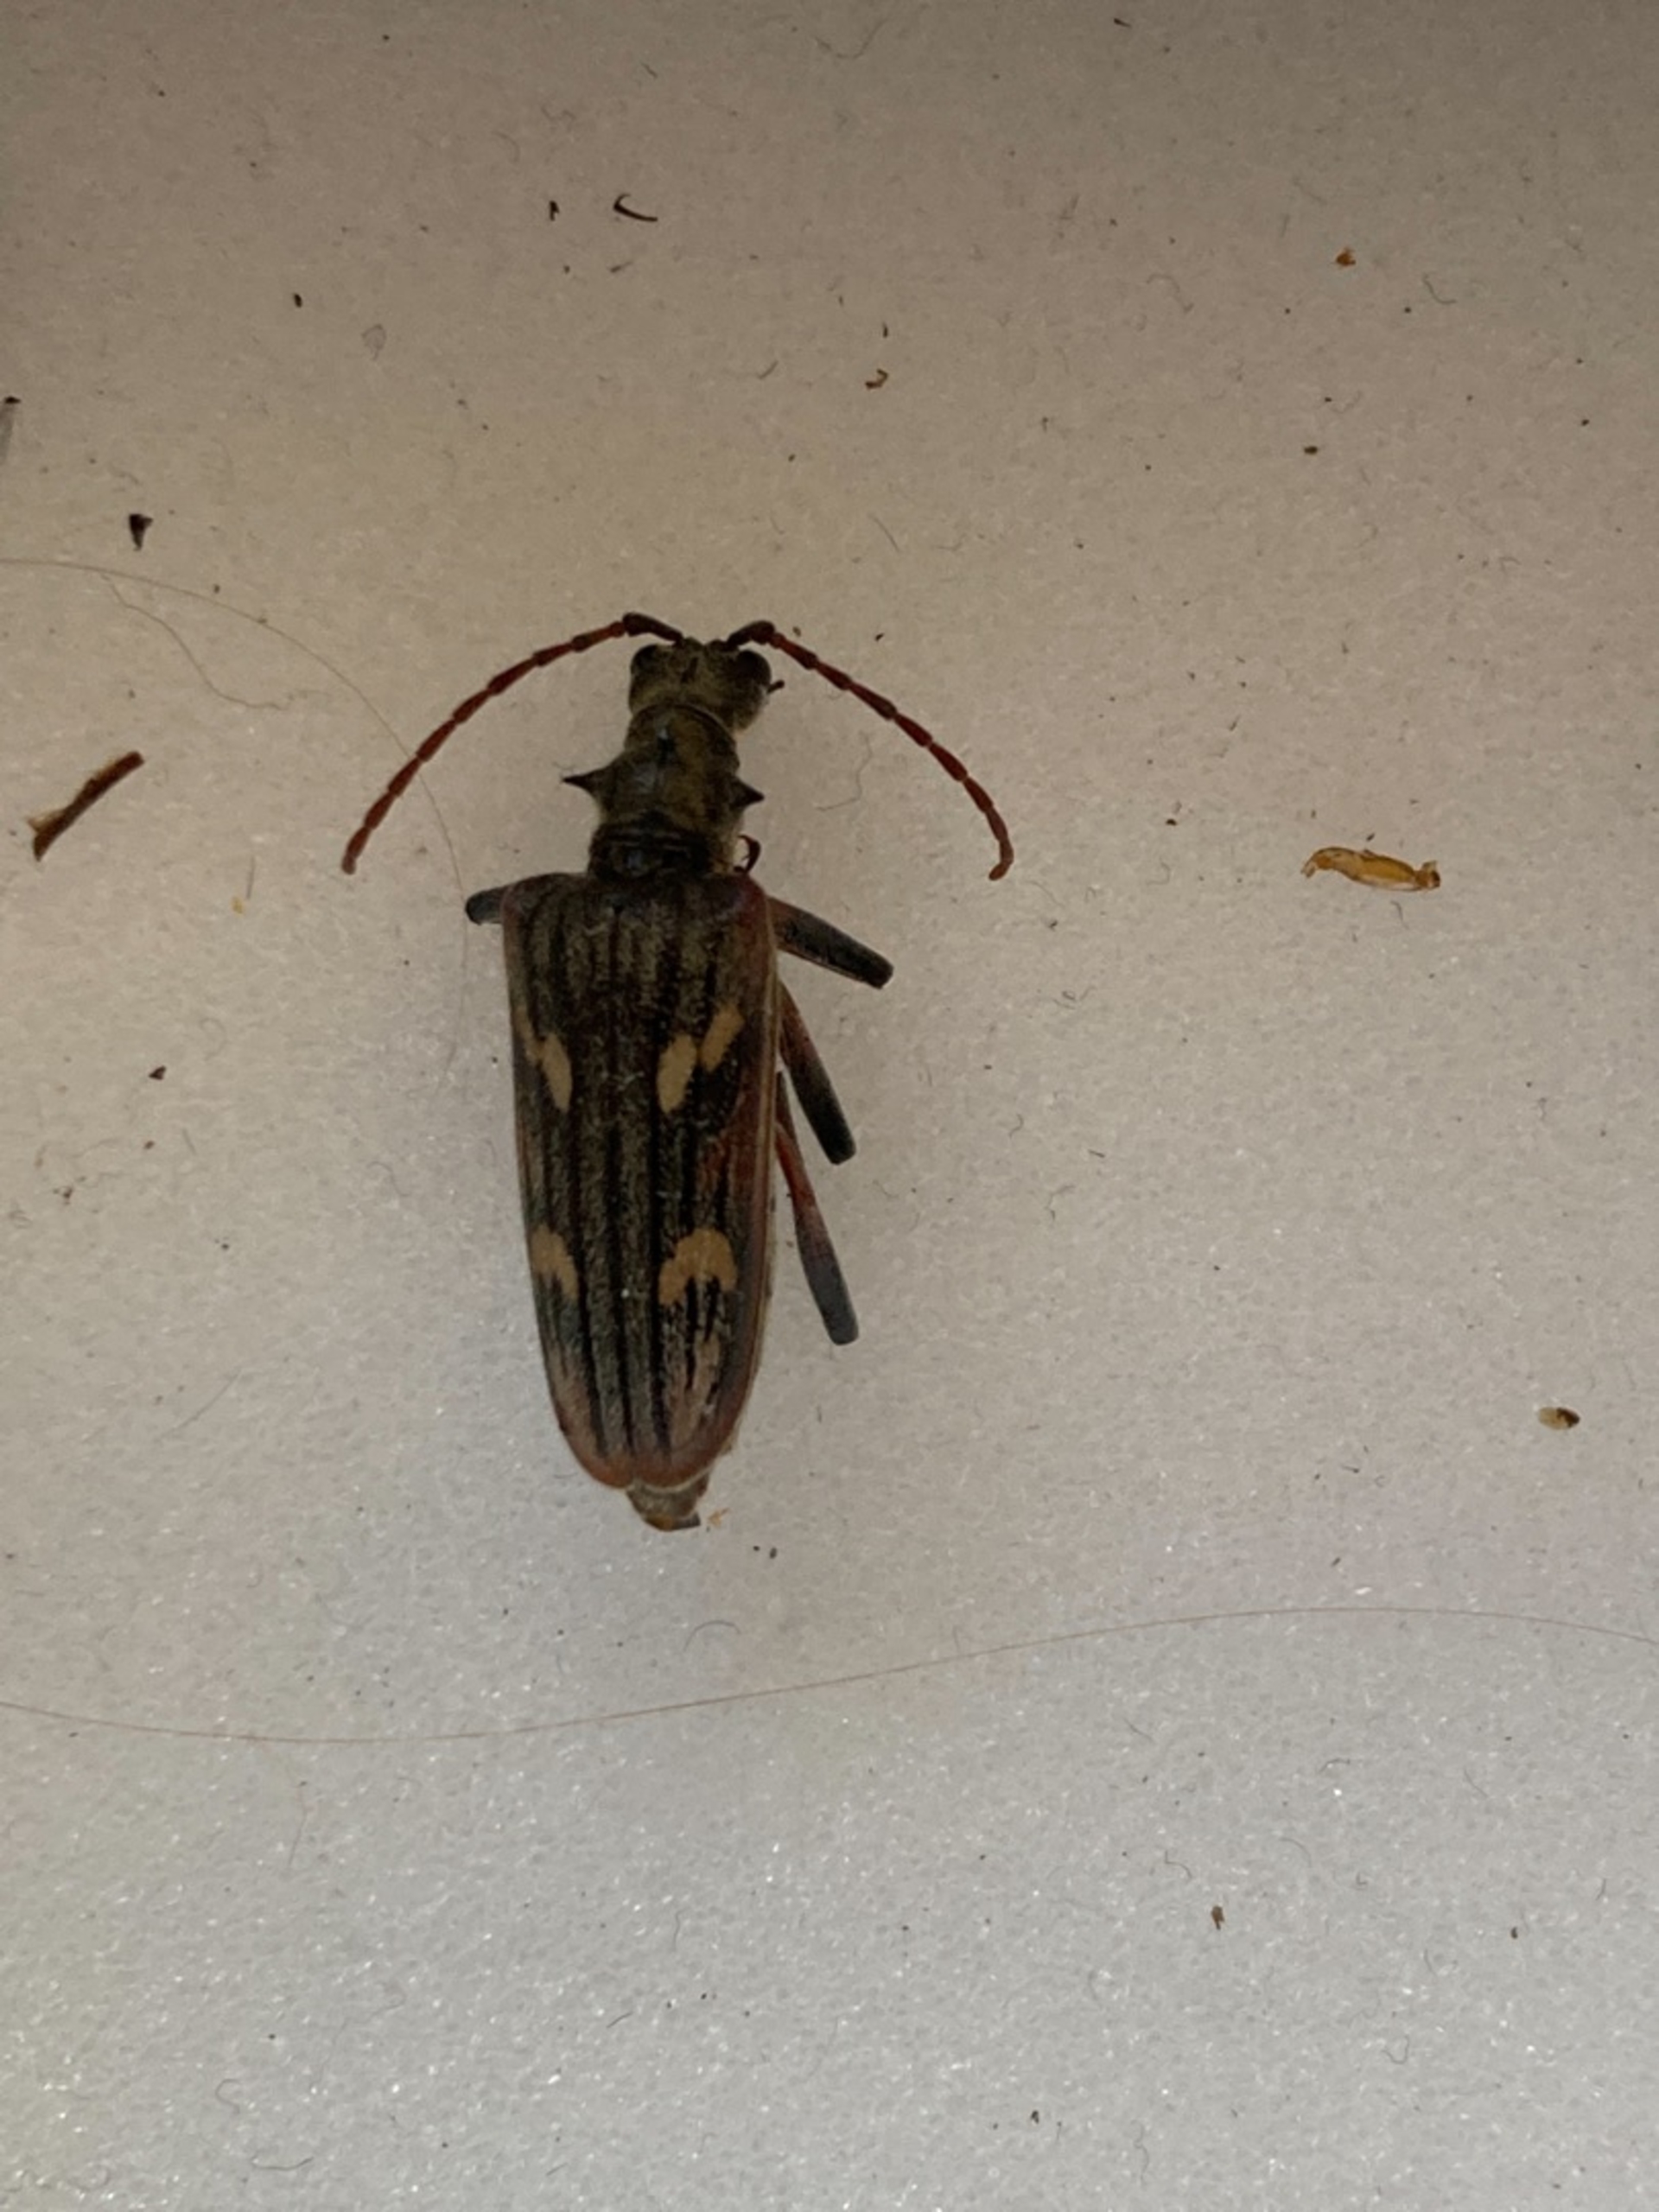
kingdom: Animalia
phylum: Arthropoda
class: Insecta
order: Coleoptera
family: Cerambycidae
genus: Rhagium
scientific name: Rhagium bifasciatum
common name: Båndet tandbuk
